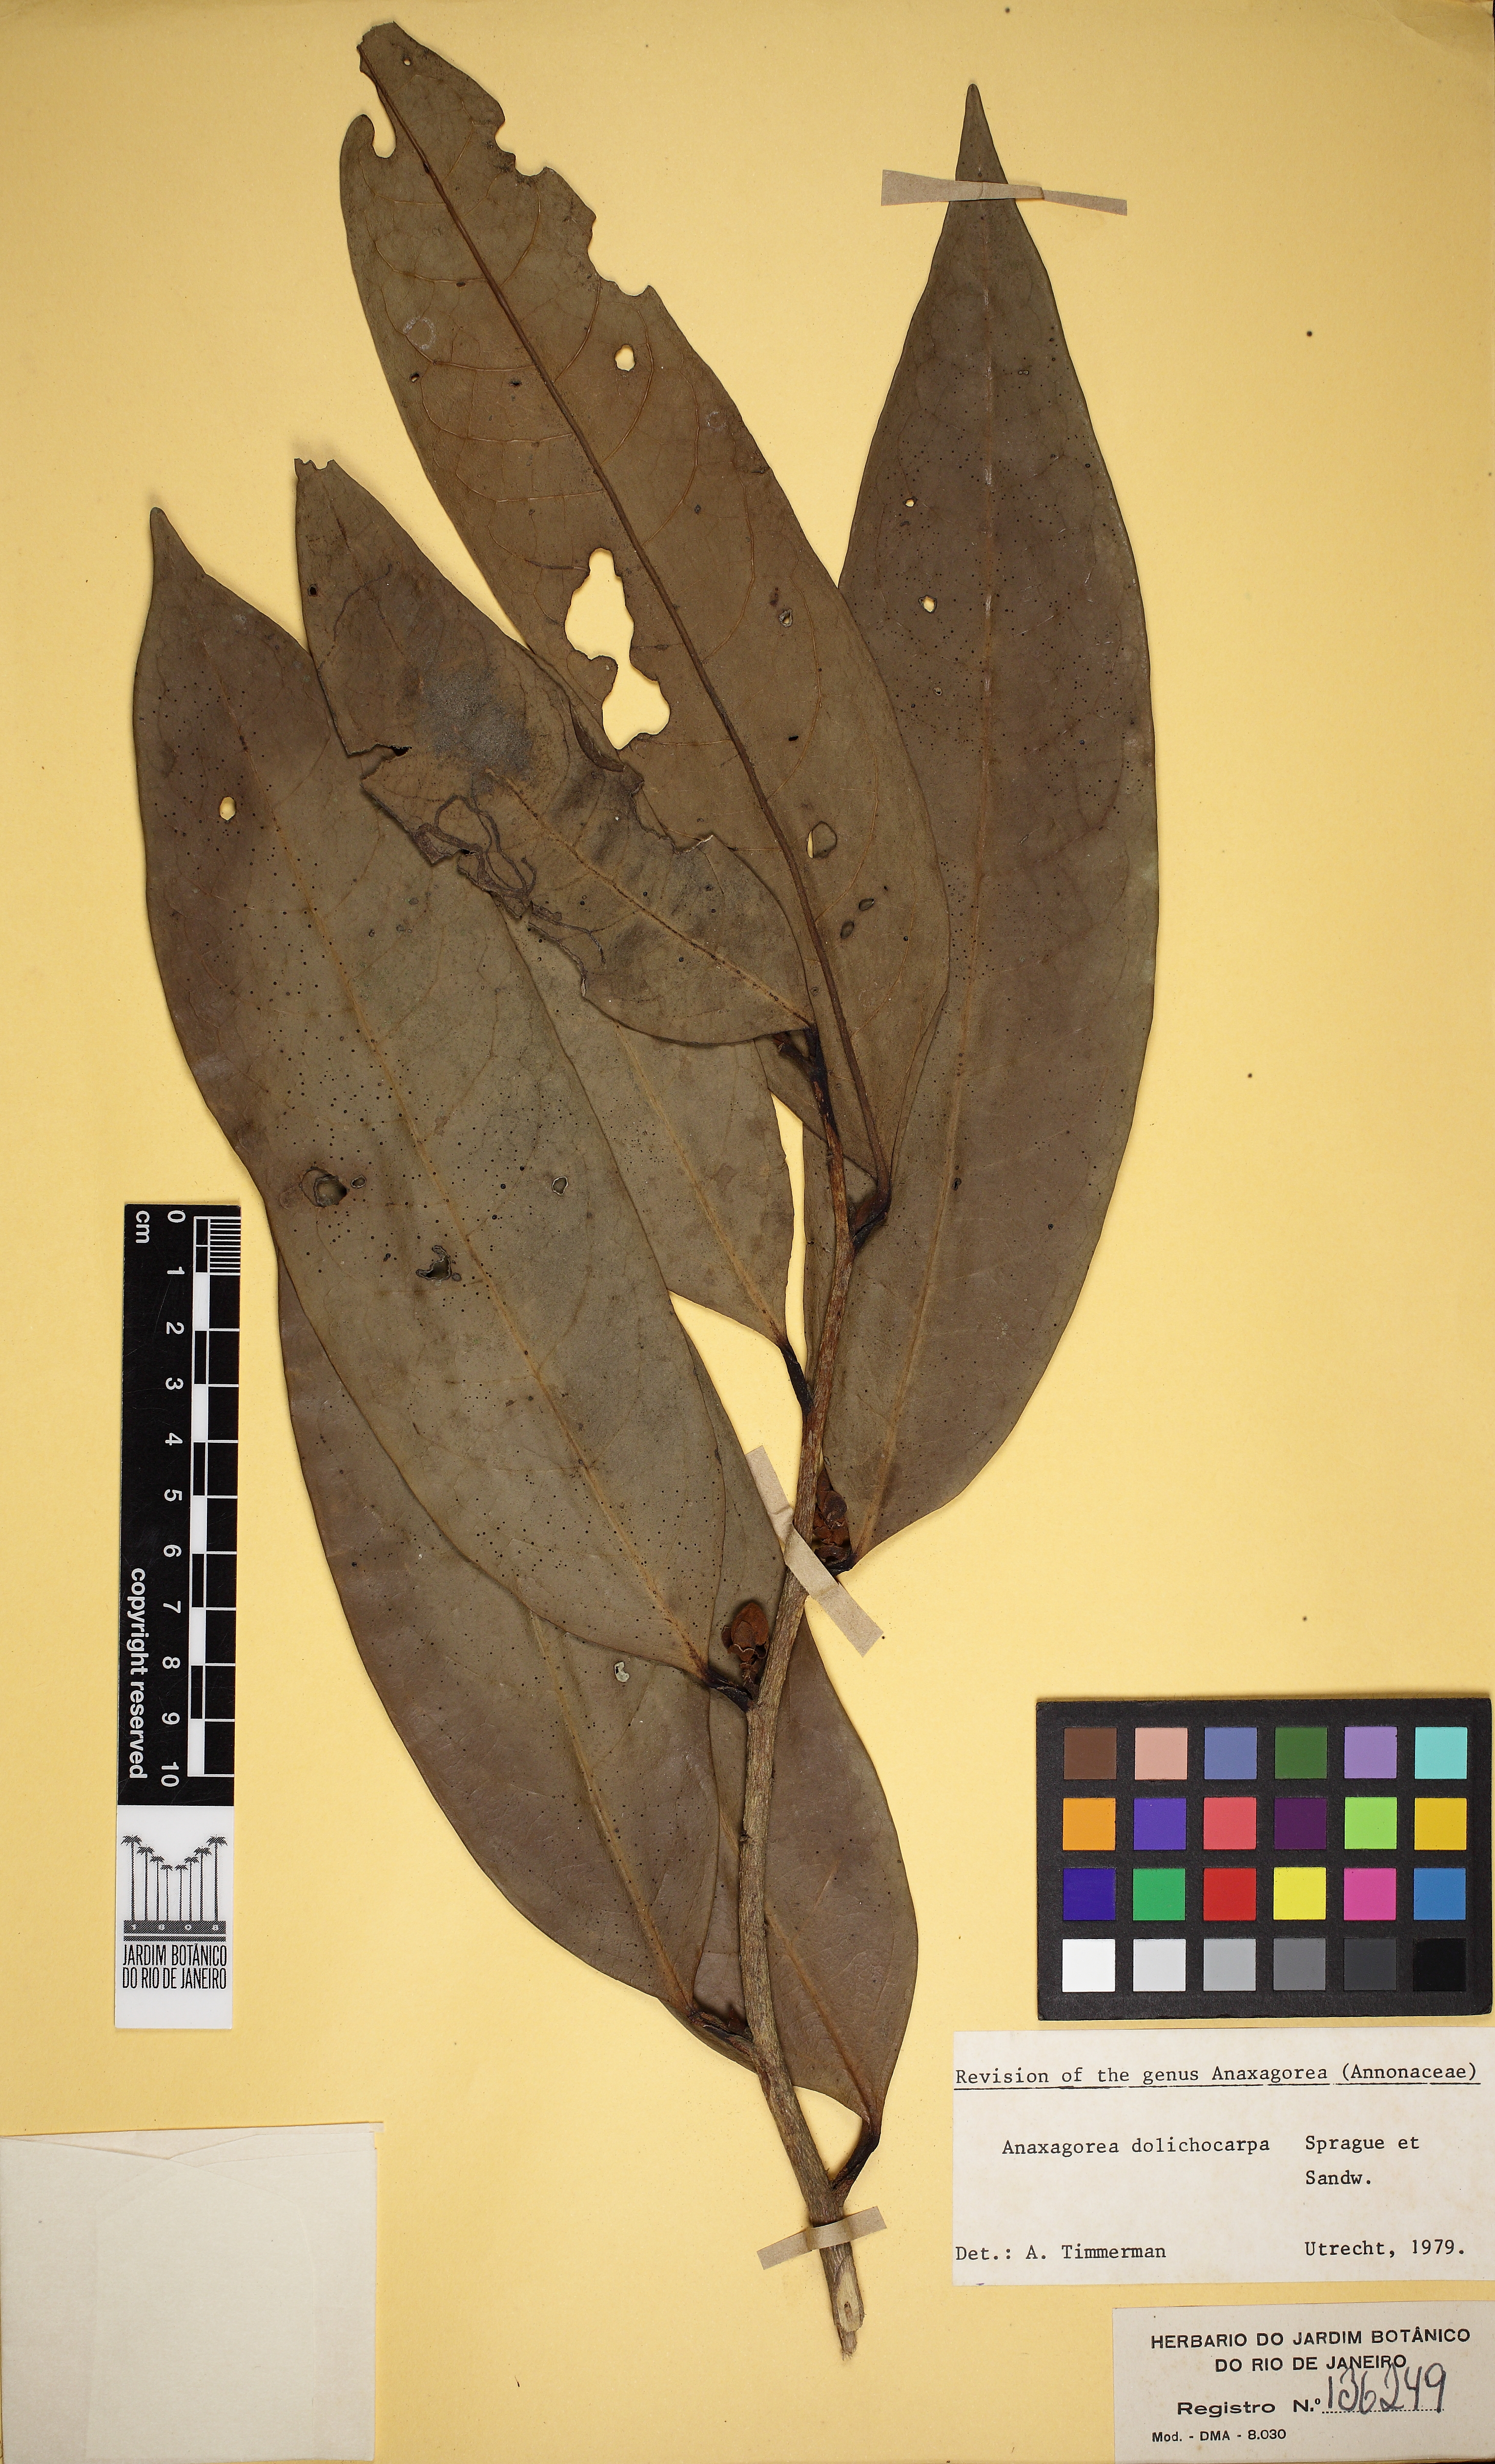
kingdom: Plantae
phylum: Tracheophyta
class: Magnoliopsida
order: Magnoliales
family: Annonaceae
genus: Anaxagorea
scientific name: Anaxagorea dolichocarpa
